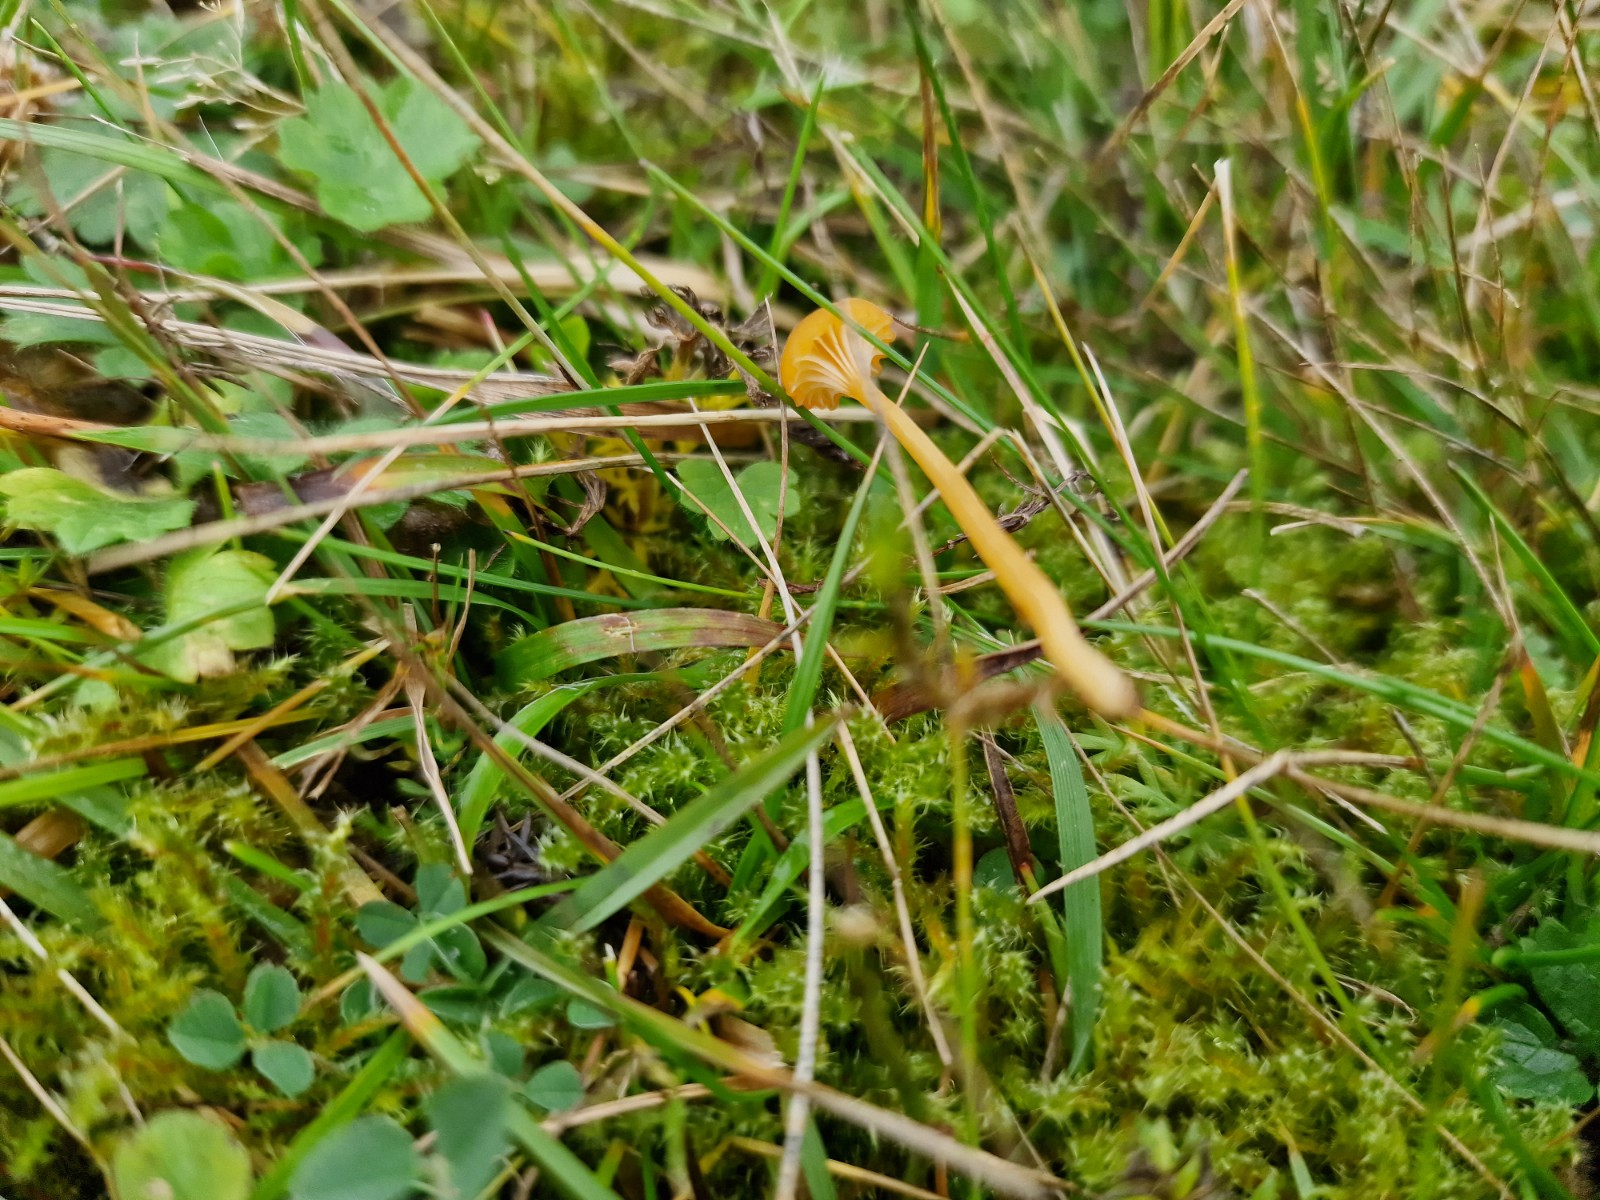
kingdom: Fungi
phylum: Basidiomycota
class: Agaricomycetes
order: Hymenochaetales
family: Rickenellaceae
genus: Rickenella
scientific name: Rickenella fibula
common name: orange mosnavlehat
